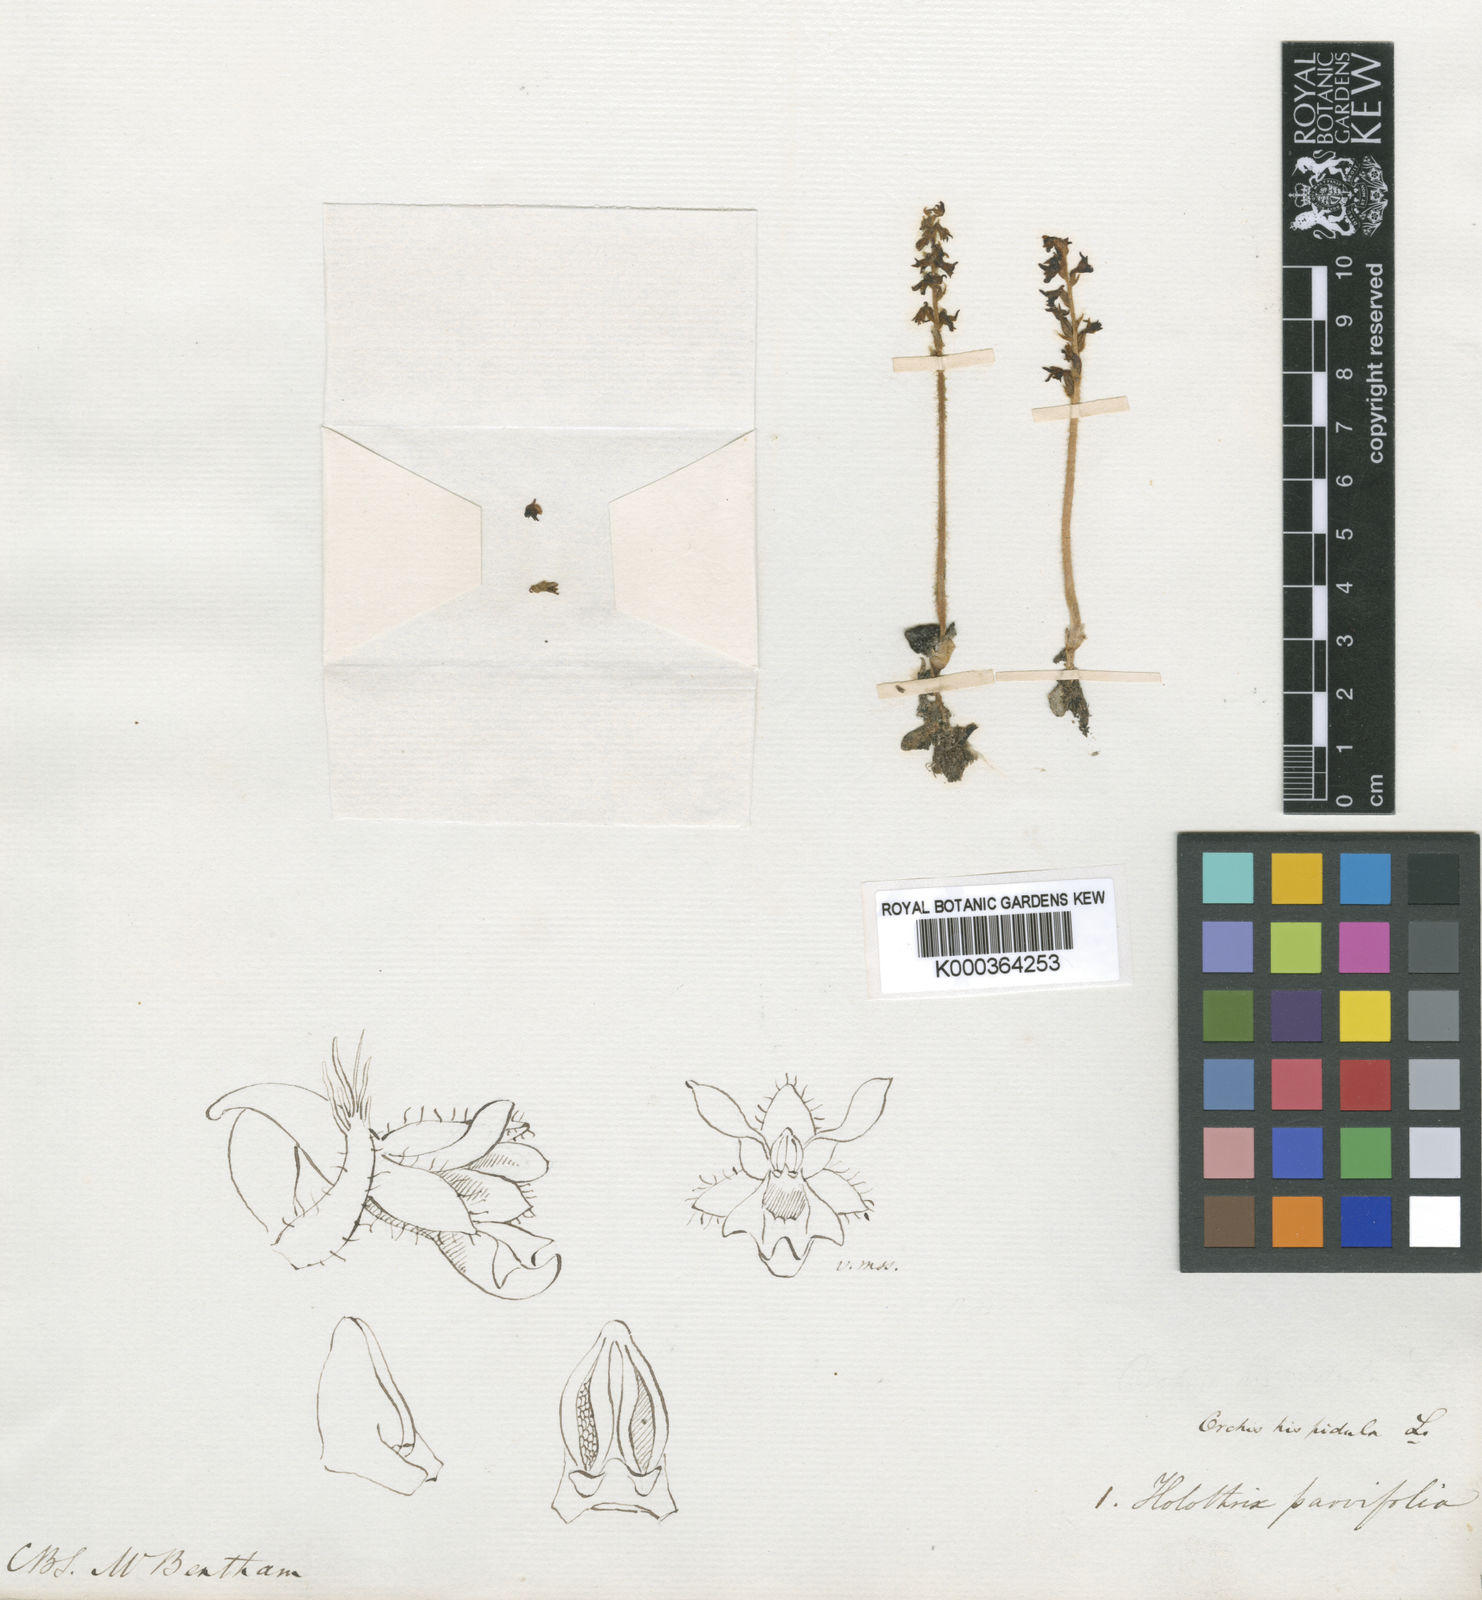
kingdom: Plantae
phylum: Tracheophyta
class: Liliopsida
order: Asparagales
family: Orchidaceae
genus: Holothrix
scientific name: Holothrix
